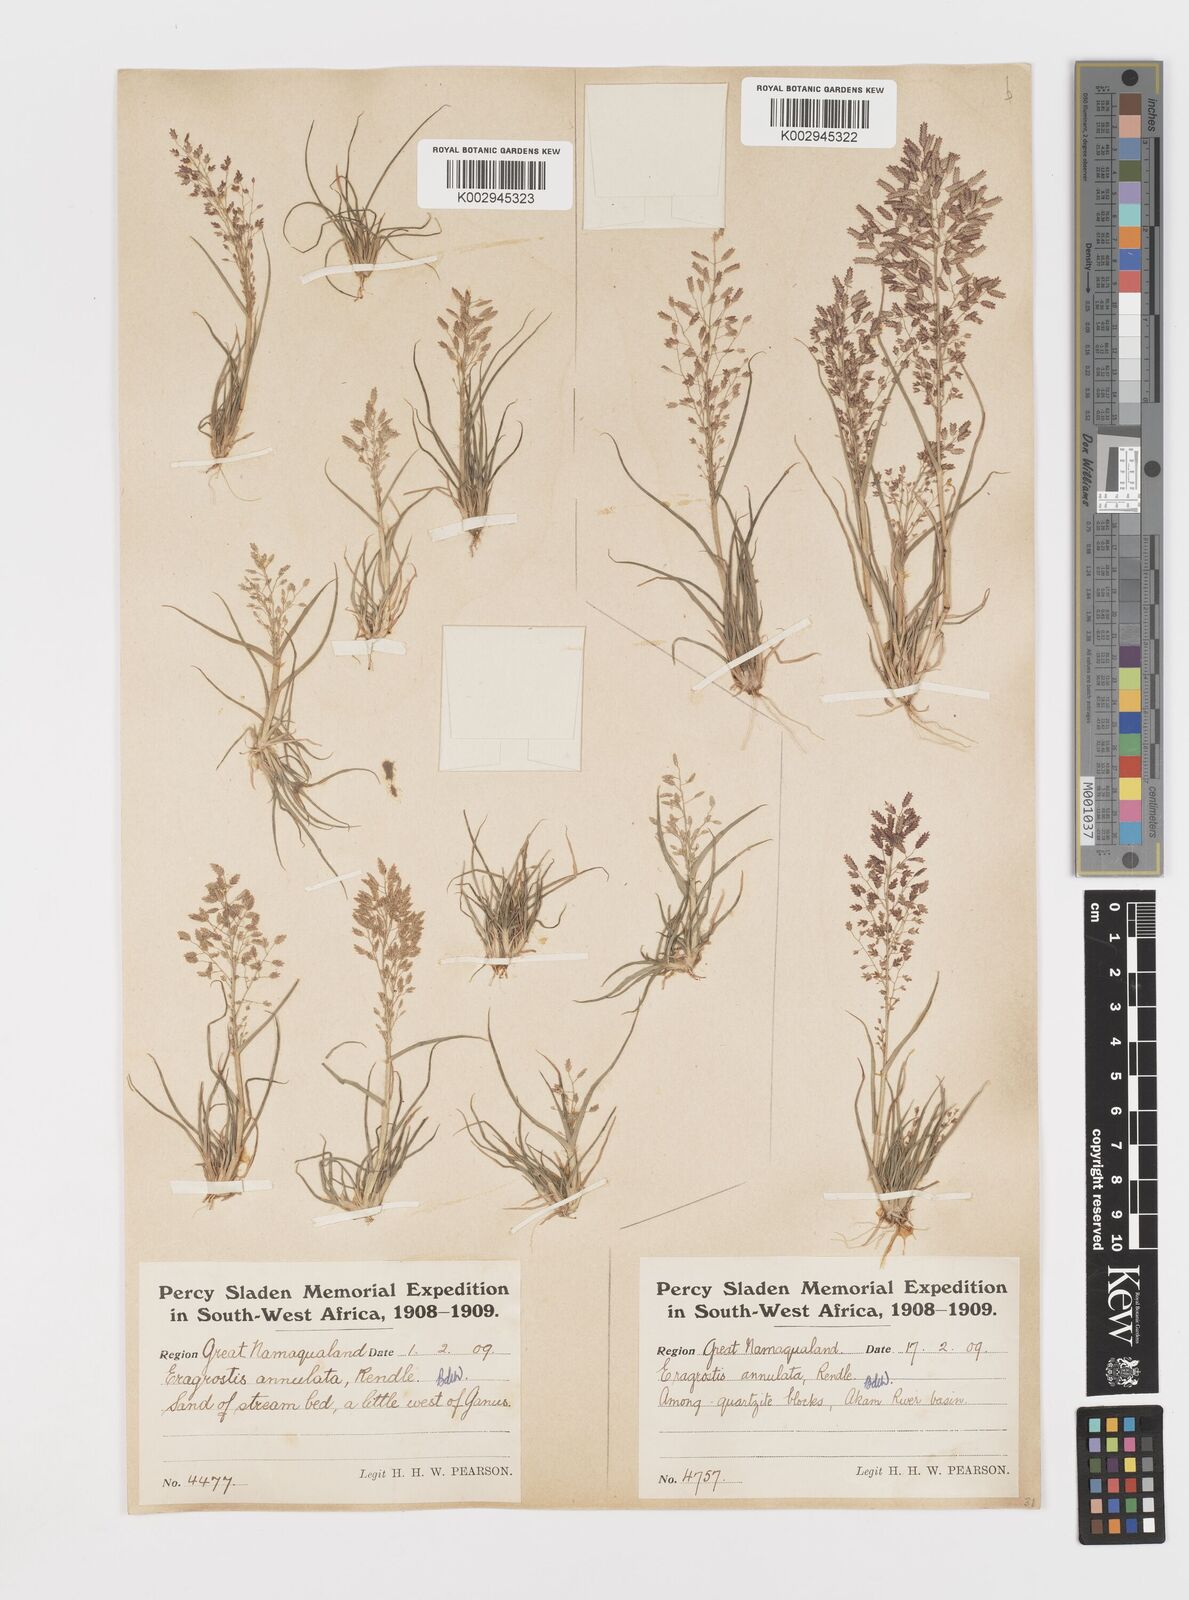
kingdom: Plantae
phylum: Tracheophyta
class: Liliopsida
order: Poales
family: Poaceae
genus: Eragrostis
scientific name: Eragrostis annulata
